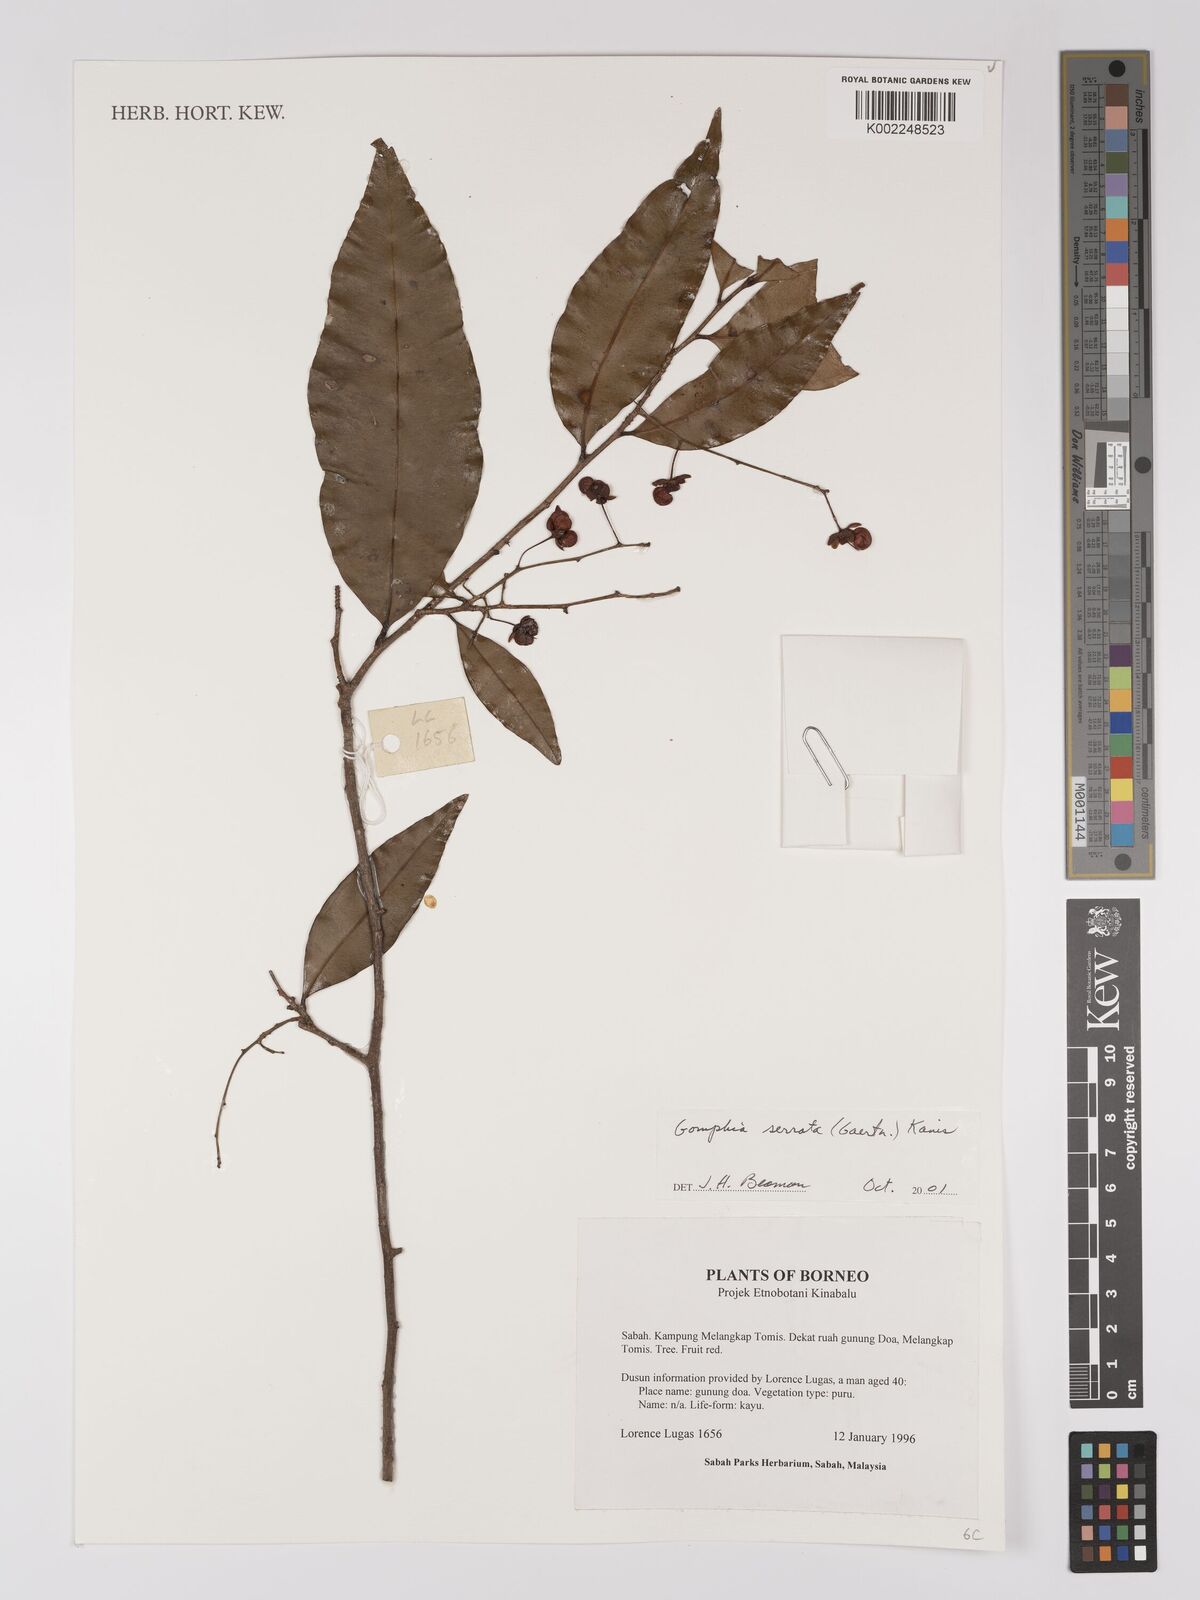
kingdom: Plantae
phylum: Tracheophyta
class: Magnoliopsida
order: Malpighiales
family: Ochnaceae
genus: Gomphia
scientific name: Gomphia serrata
